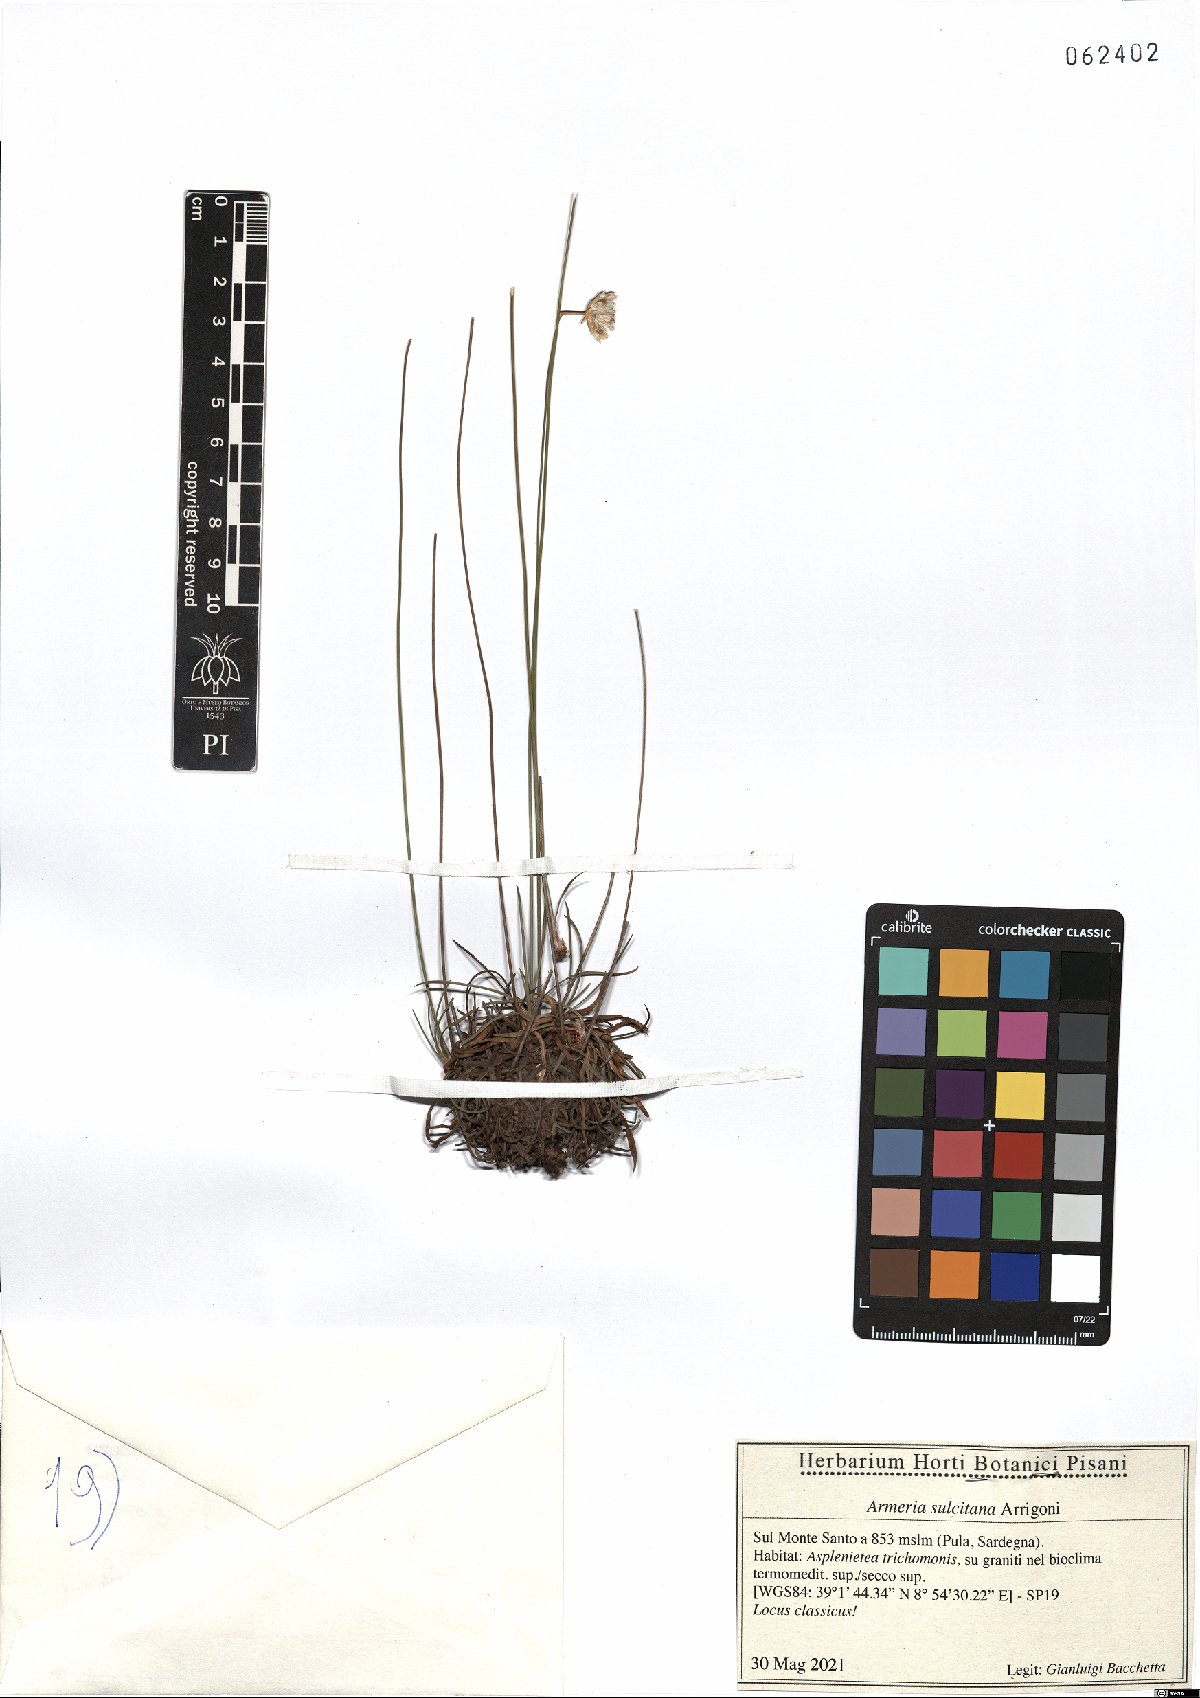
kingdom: Plantae
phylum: Tracheophyta
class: Magnoliopsida
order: Caryophyllales
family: Plumbaginaceae
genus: Armeria
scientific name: Armeria sulcitana
